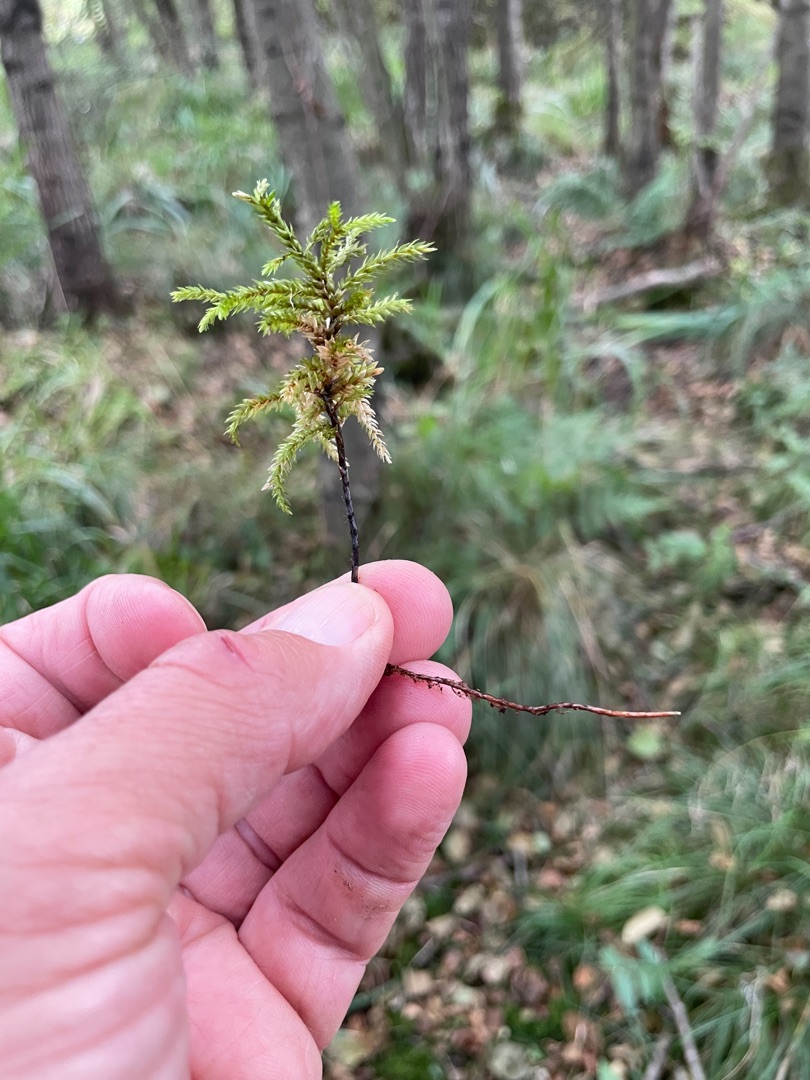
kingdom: Plantae
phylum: Bryophyta
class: Bryopsida
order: Hypnales
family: Climaciaceae
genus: Climacium
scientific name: Climacium dendroides
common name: Stor engkost
